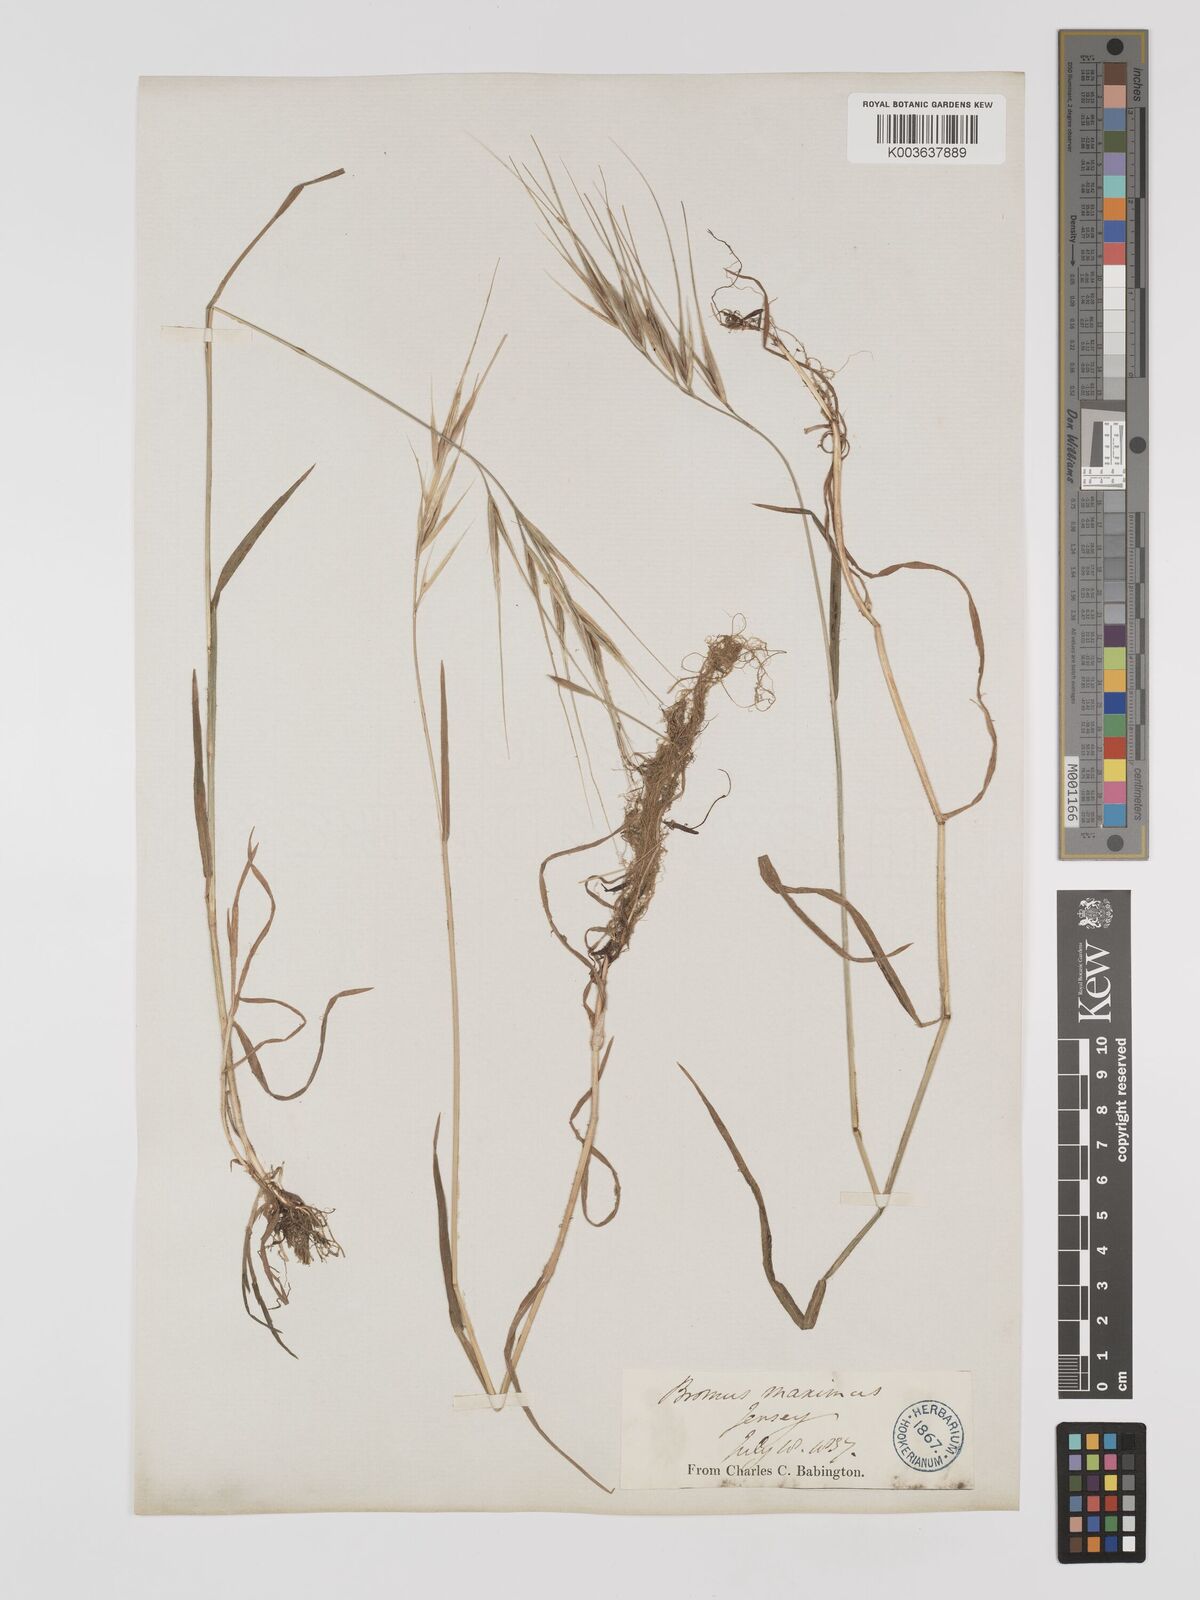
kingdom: Plantae
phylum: Tracheophyta
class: Liliopsida
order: Poales
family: Poaceae
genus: Bromus
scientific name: Bromus
